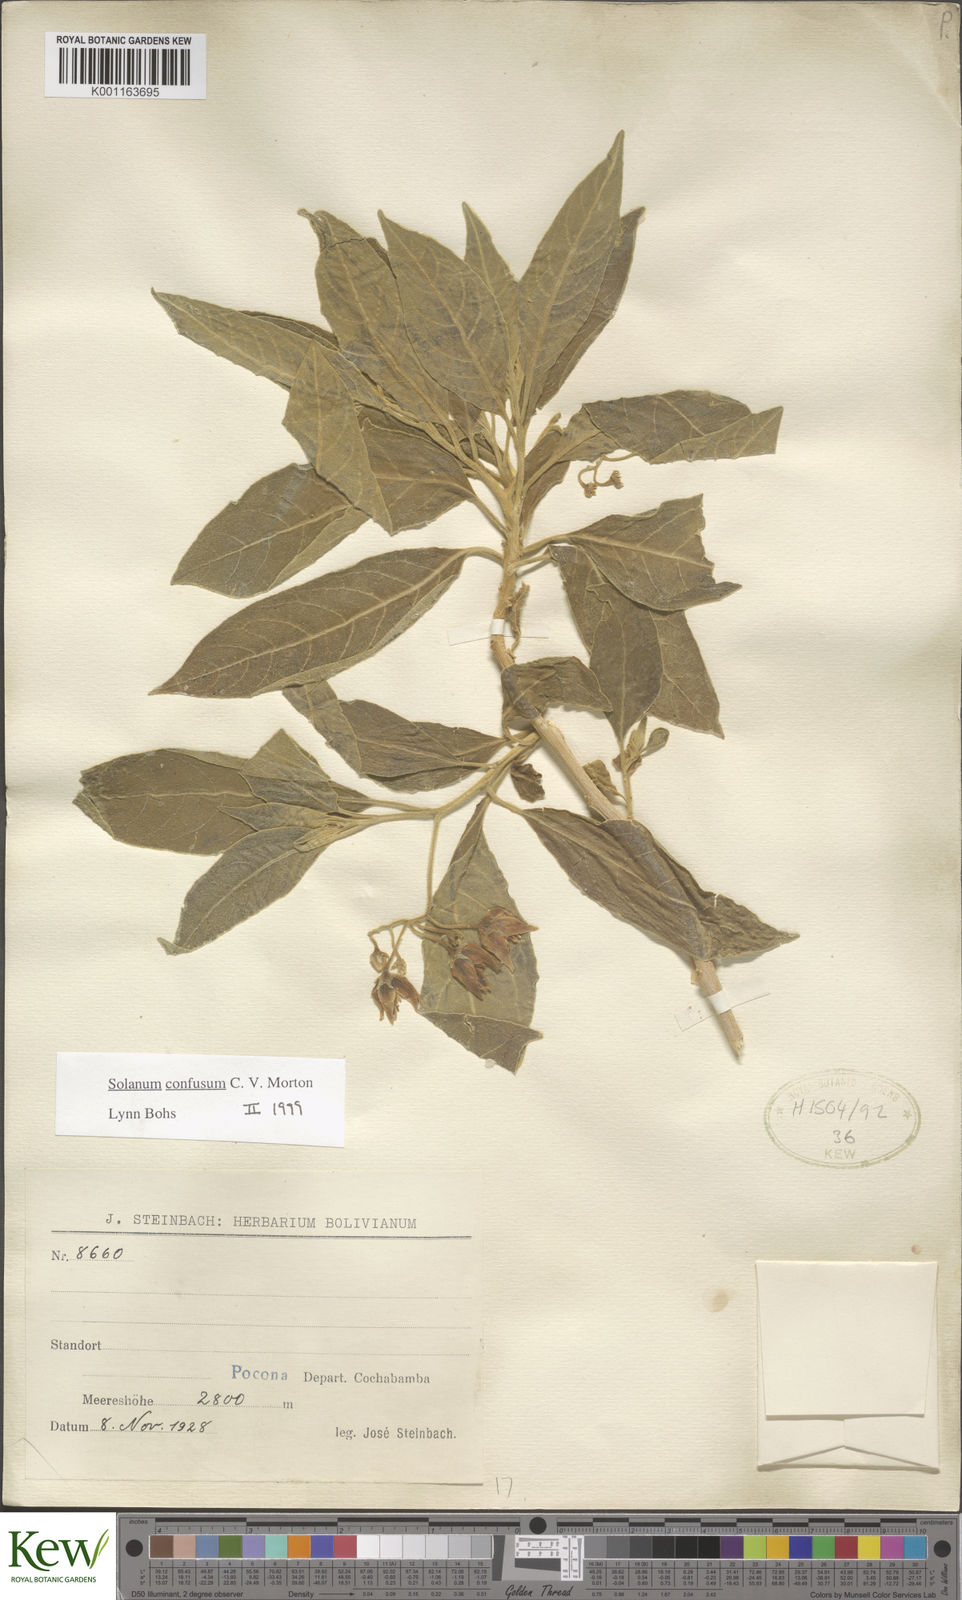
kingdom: Plantae
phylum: Tracheophyta
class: Magnoliopsida
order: Solanales
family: Solanaceae
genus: Solanum
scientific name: Solanum confusum
